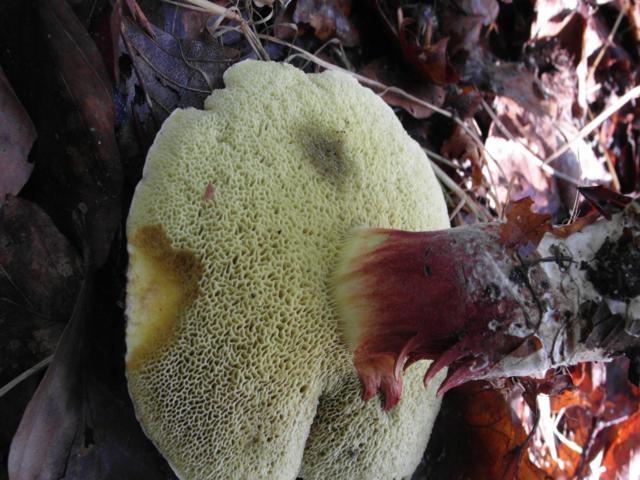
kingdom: Fungi
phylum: Basidiomycota
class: Agaricomycetes
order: Boletales
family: Boletaceae
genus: Xerocomellus
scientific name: Xerocomellus chrysenteron
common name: rødsprukken rørhat
